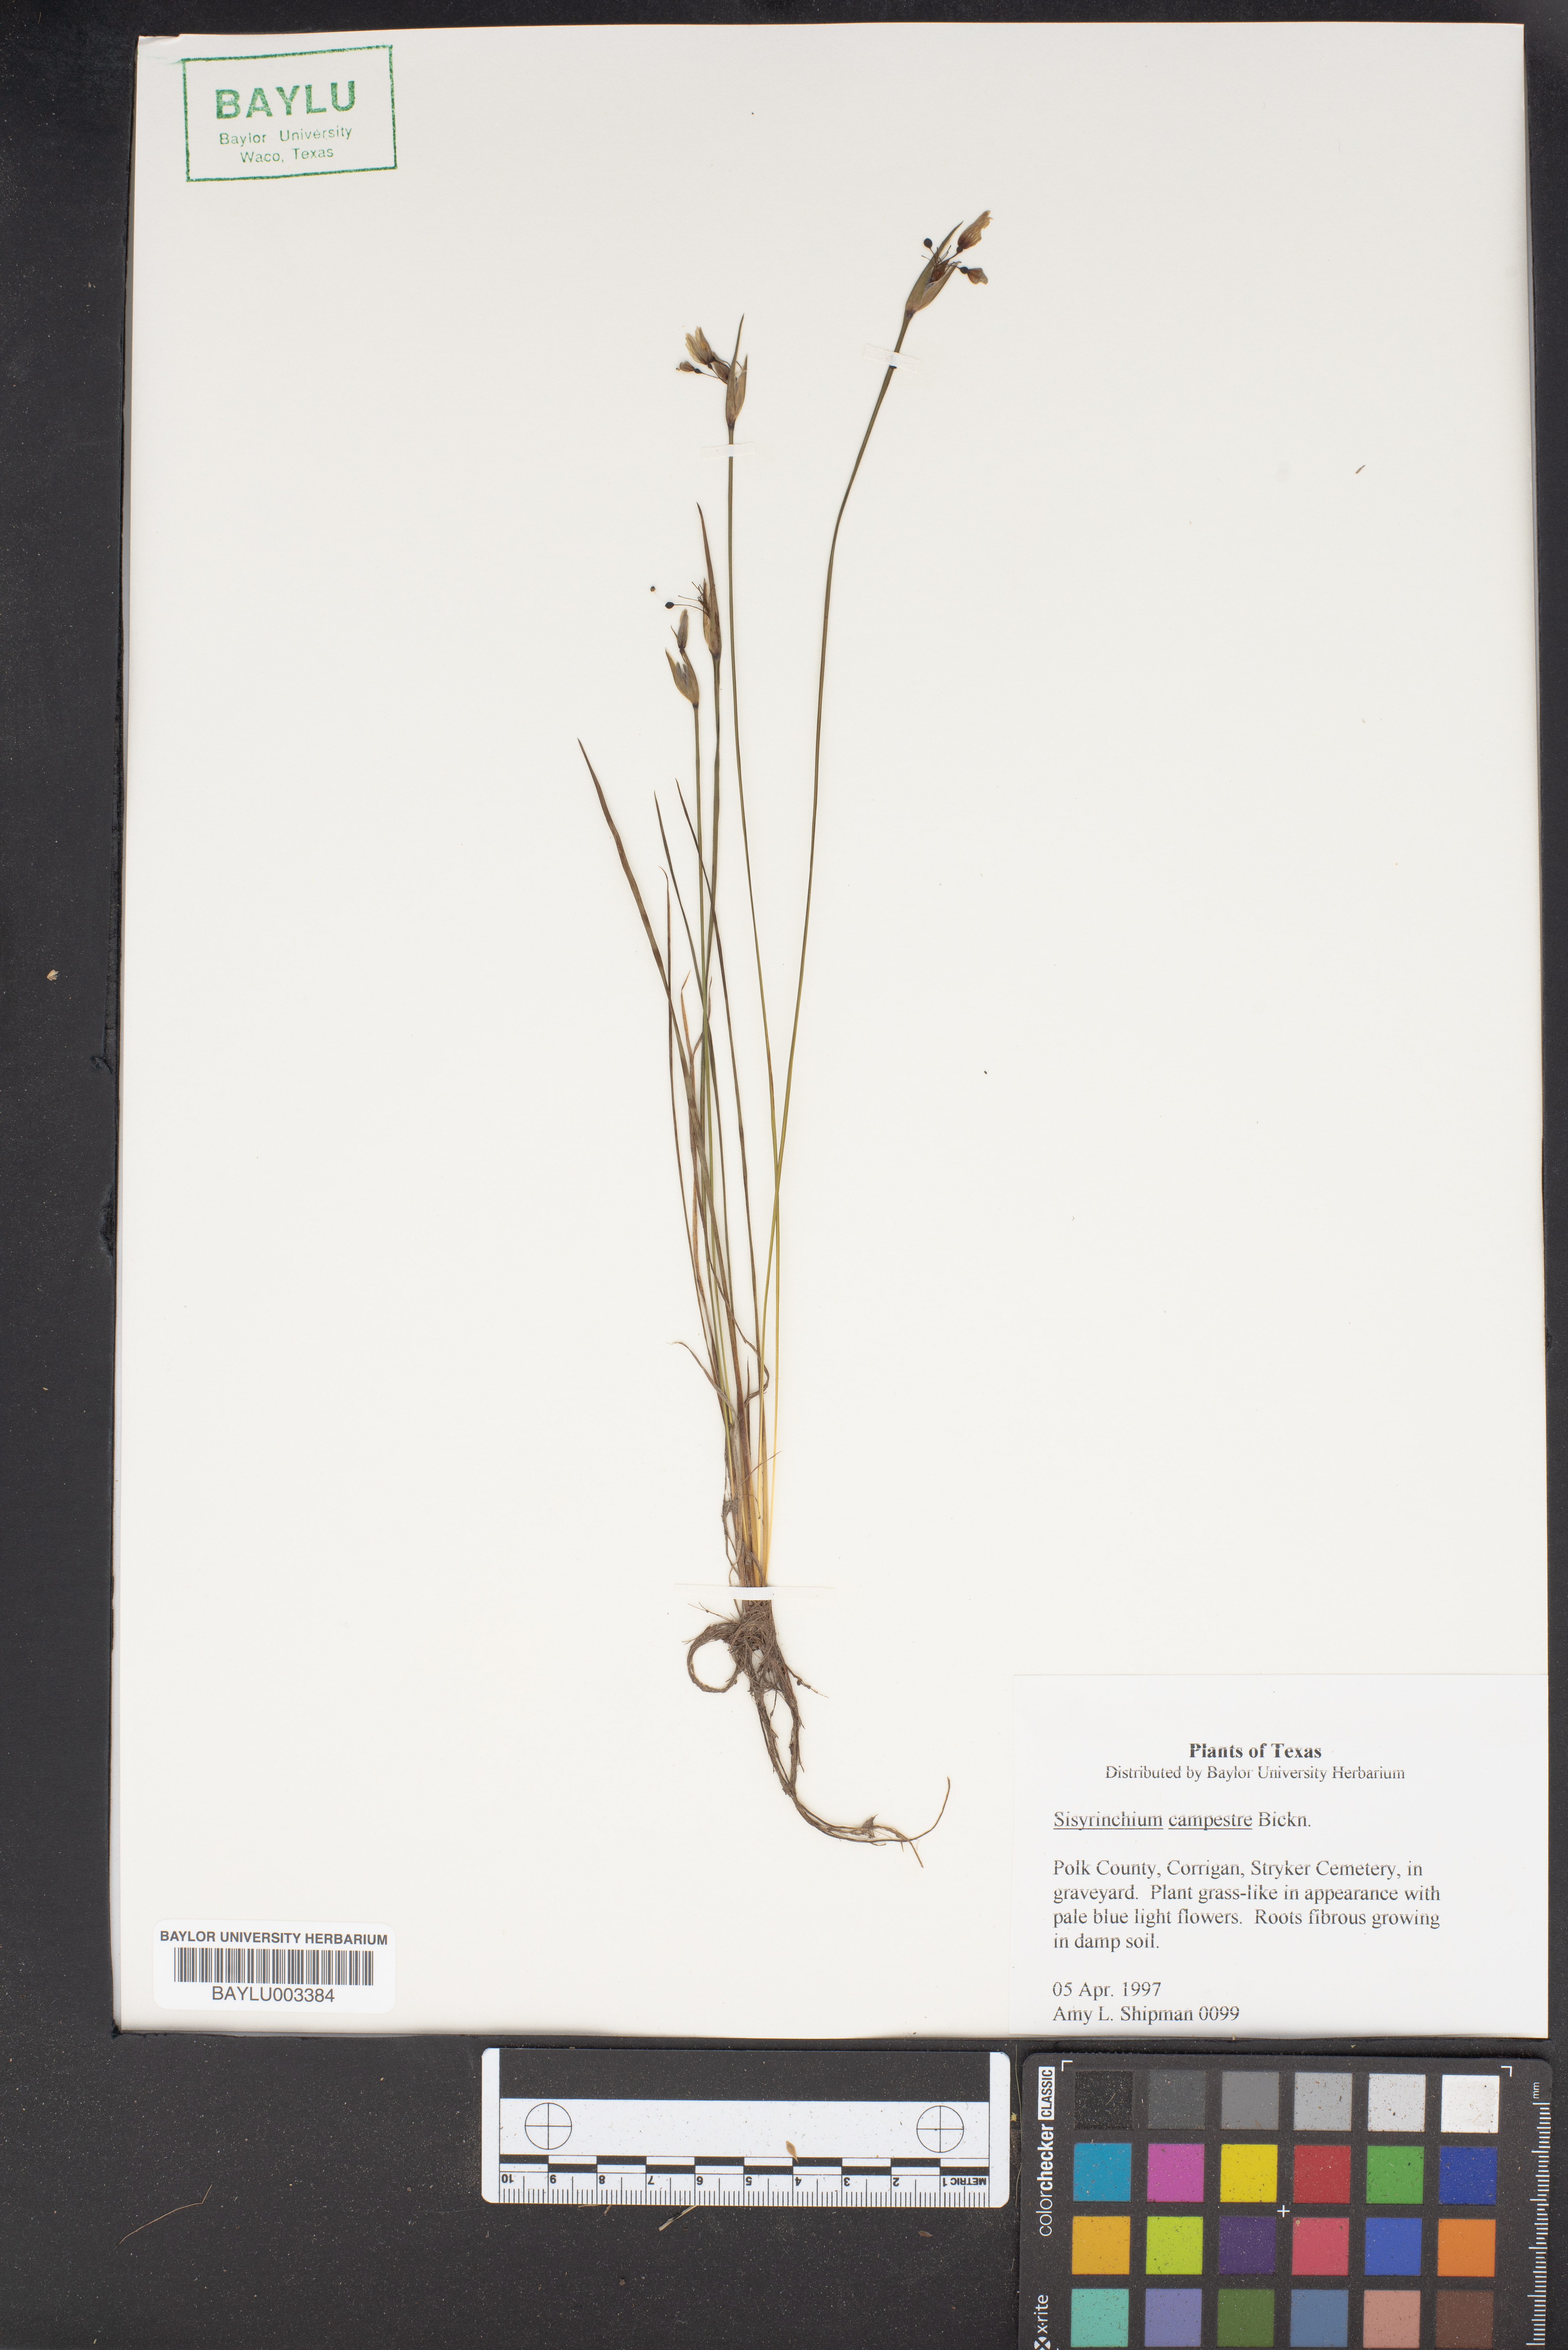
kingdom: Plantae
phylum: Tracheophyta
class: Liliopsida
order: Asparagales
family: Iridaceae
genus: Sisyrinchium
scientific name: Sisyrinchium campestre
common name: Prairie blue-eyed-grass
